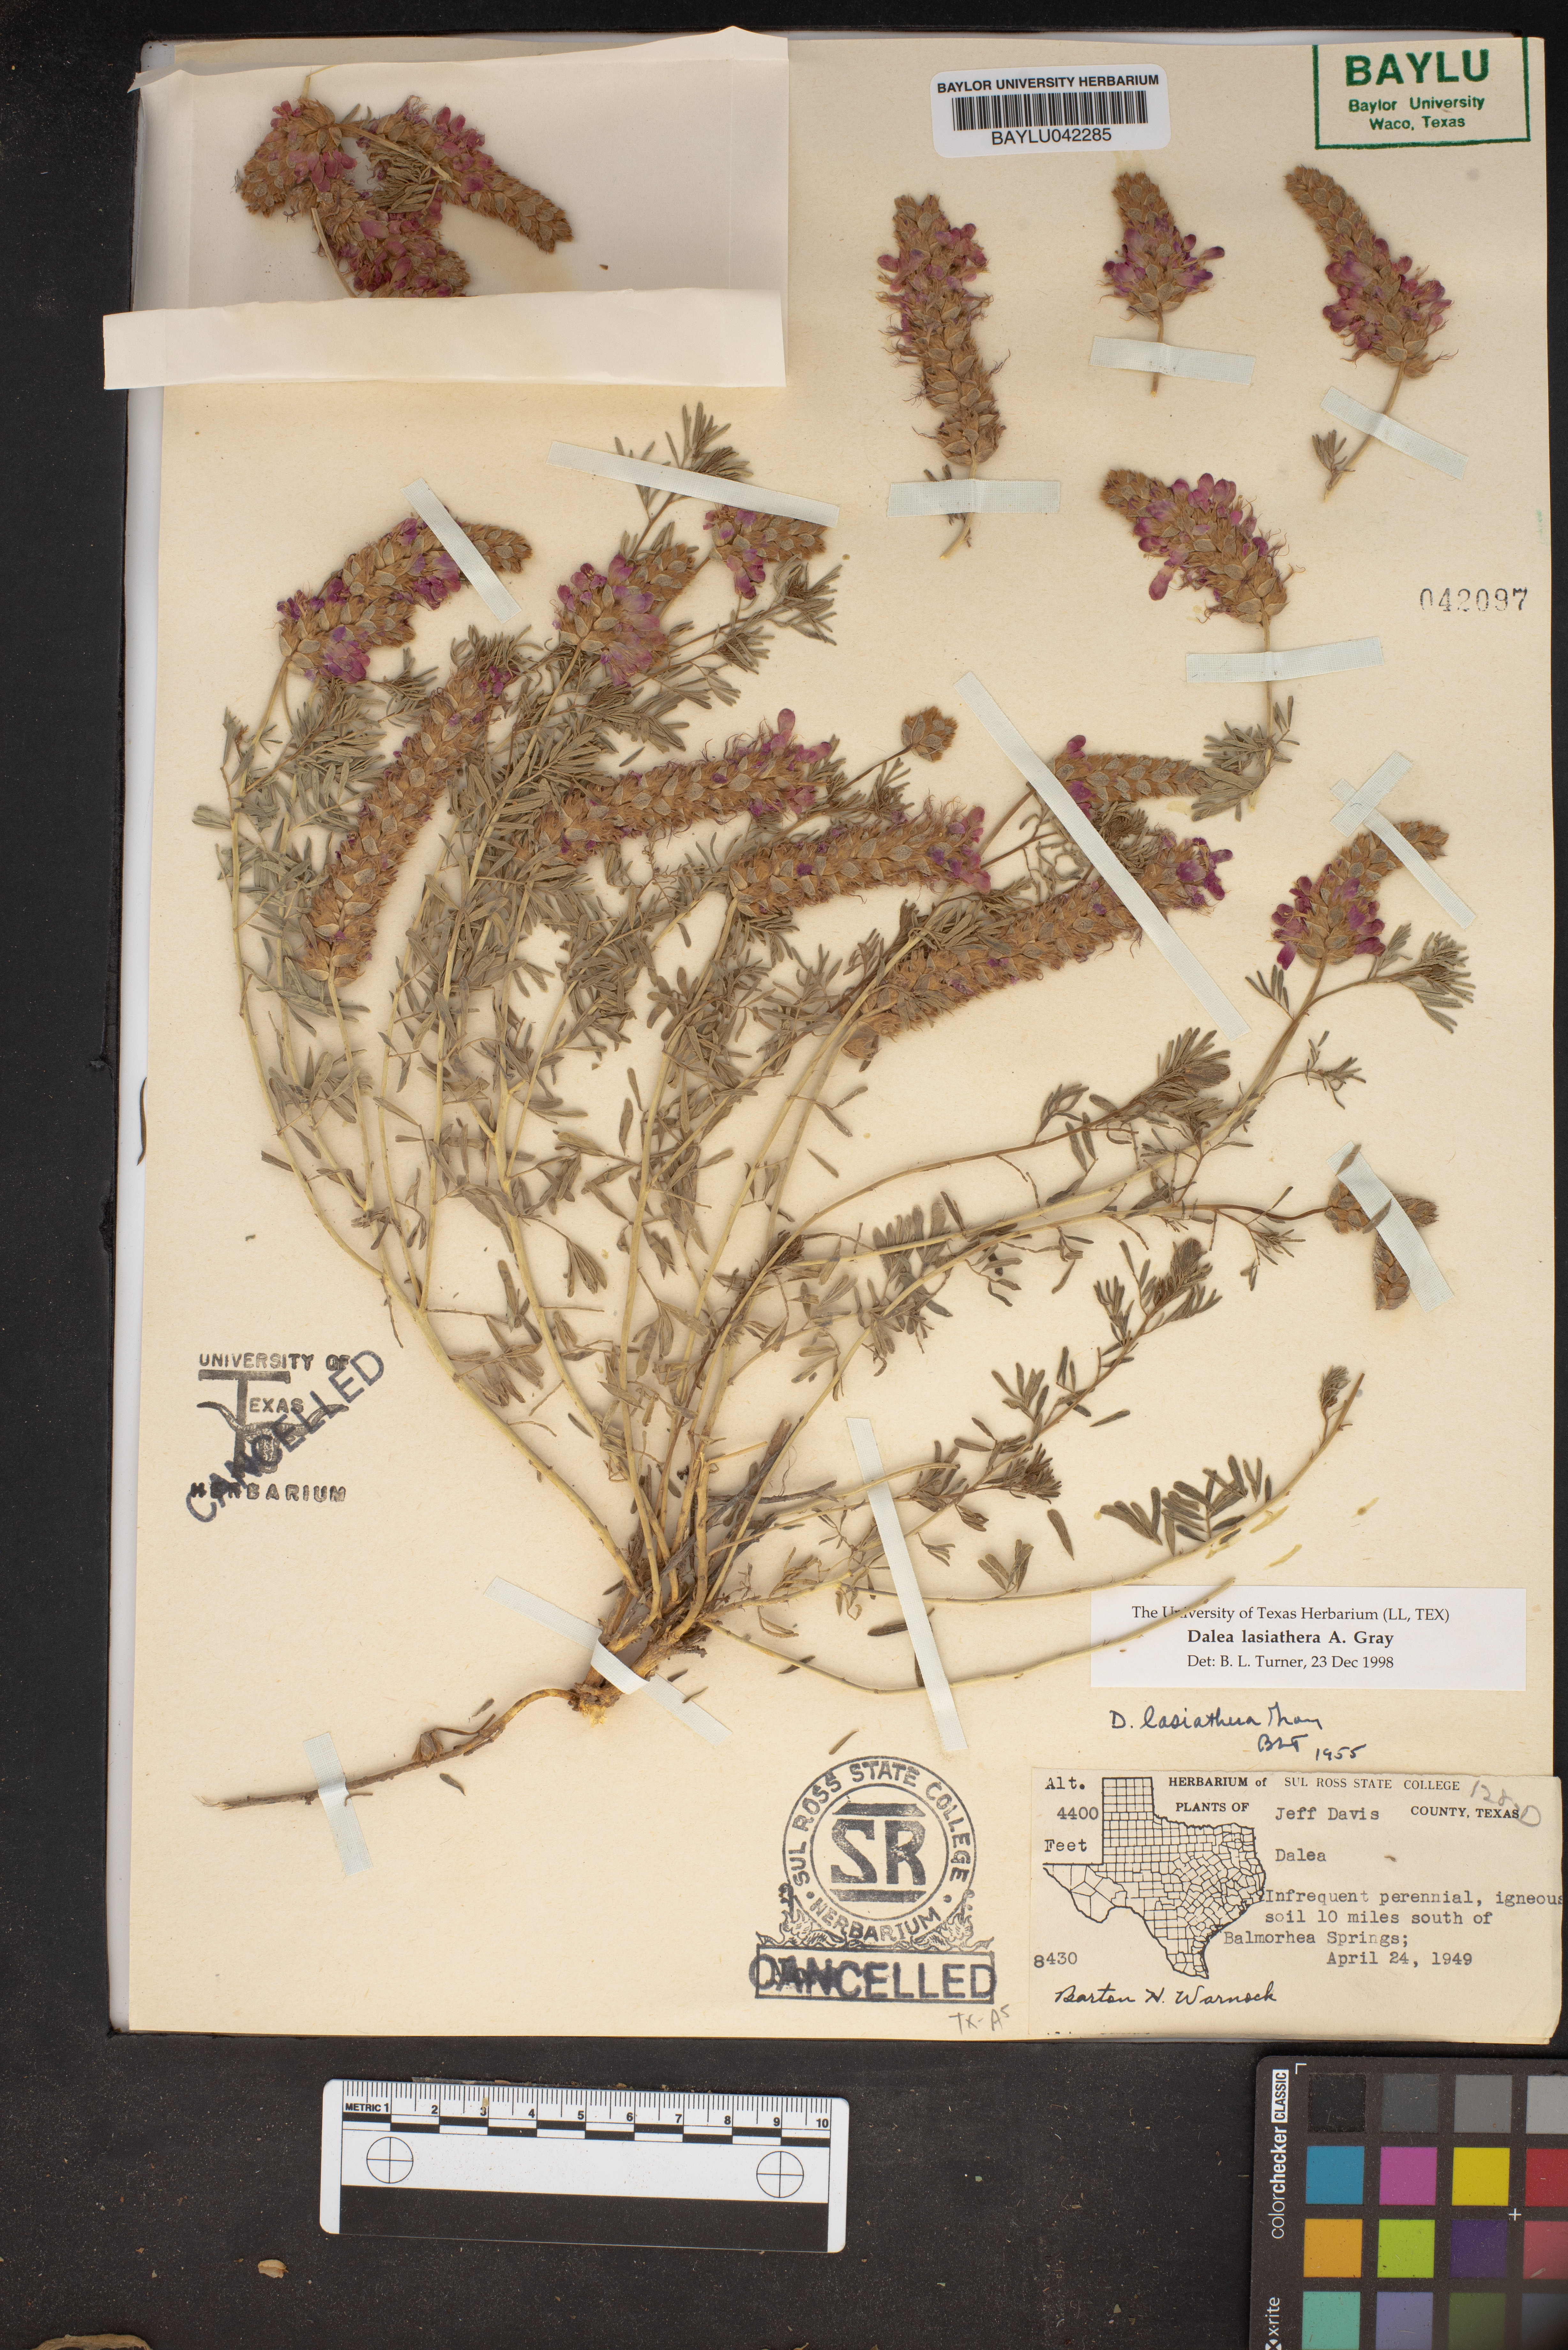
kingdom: Plantae
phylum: Tracheophyta
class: Magnoliopsida
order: Fabales
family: Fabaceae
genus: Dalea
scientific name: Dalea lasiathera
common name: Purple prairie-clover
